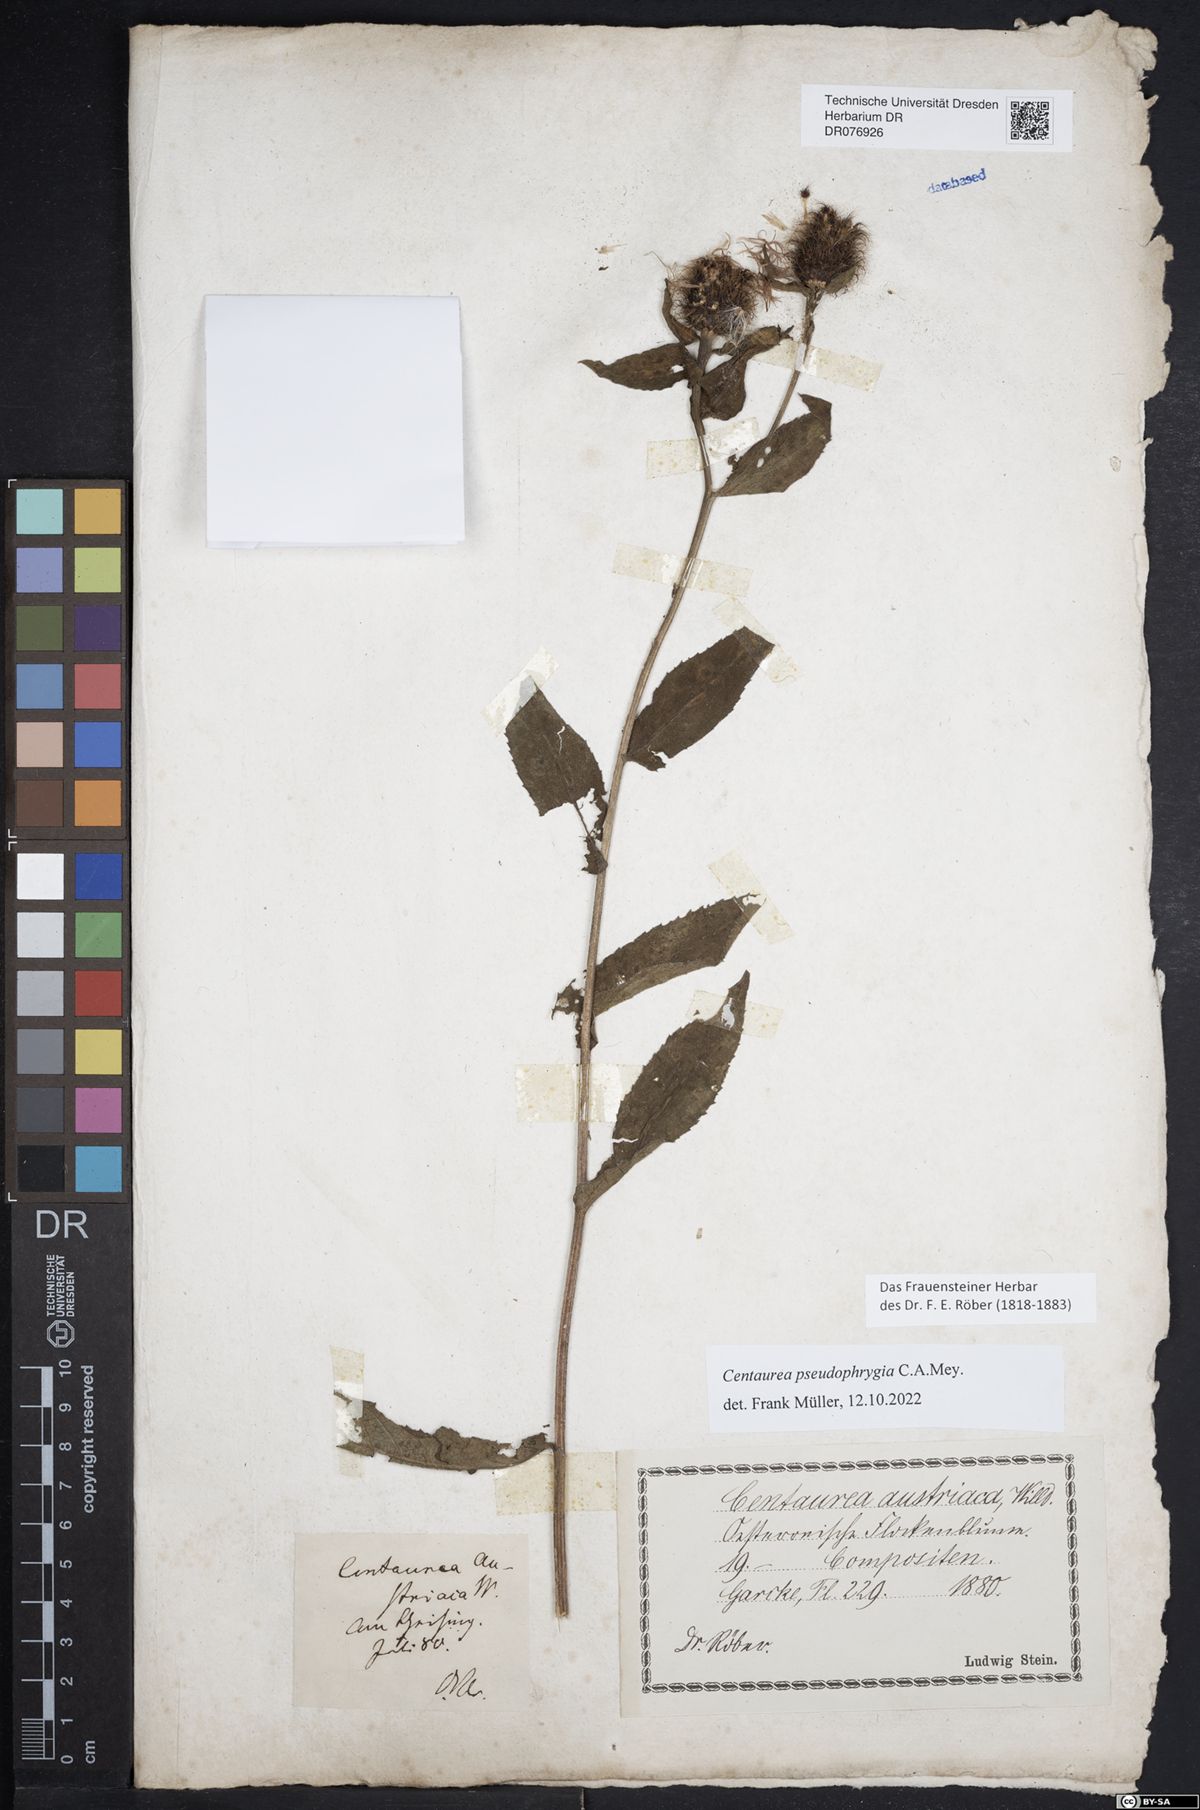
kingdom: Plantae
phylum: Tracheophyta
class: Magnoliopsida
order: Asterales
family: Asteraceae
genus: Centaurea
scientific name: Centaurea pseudophrygia
